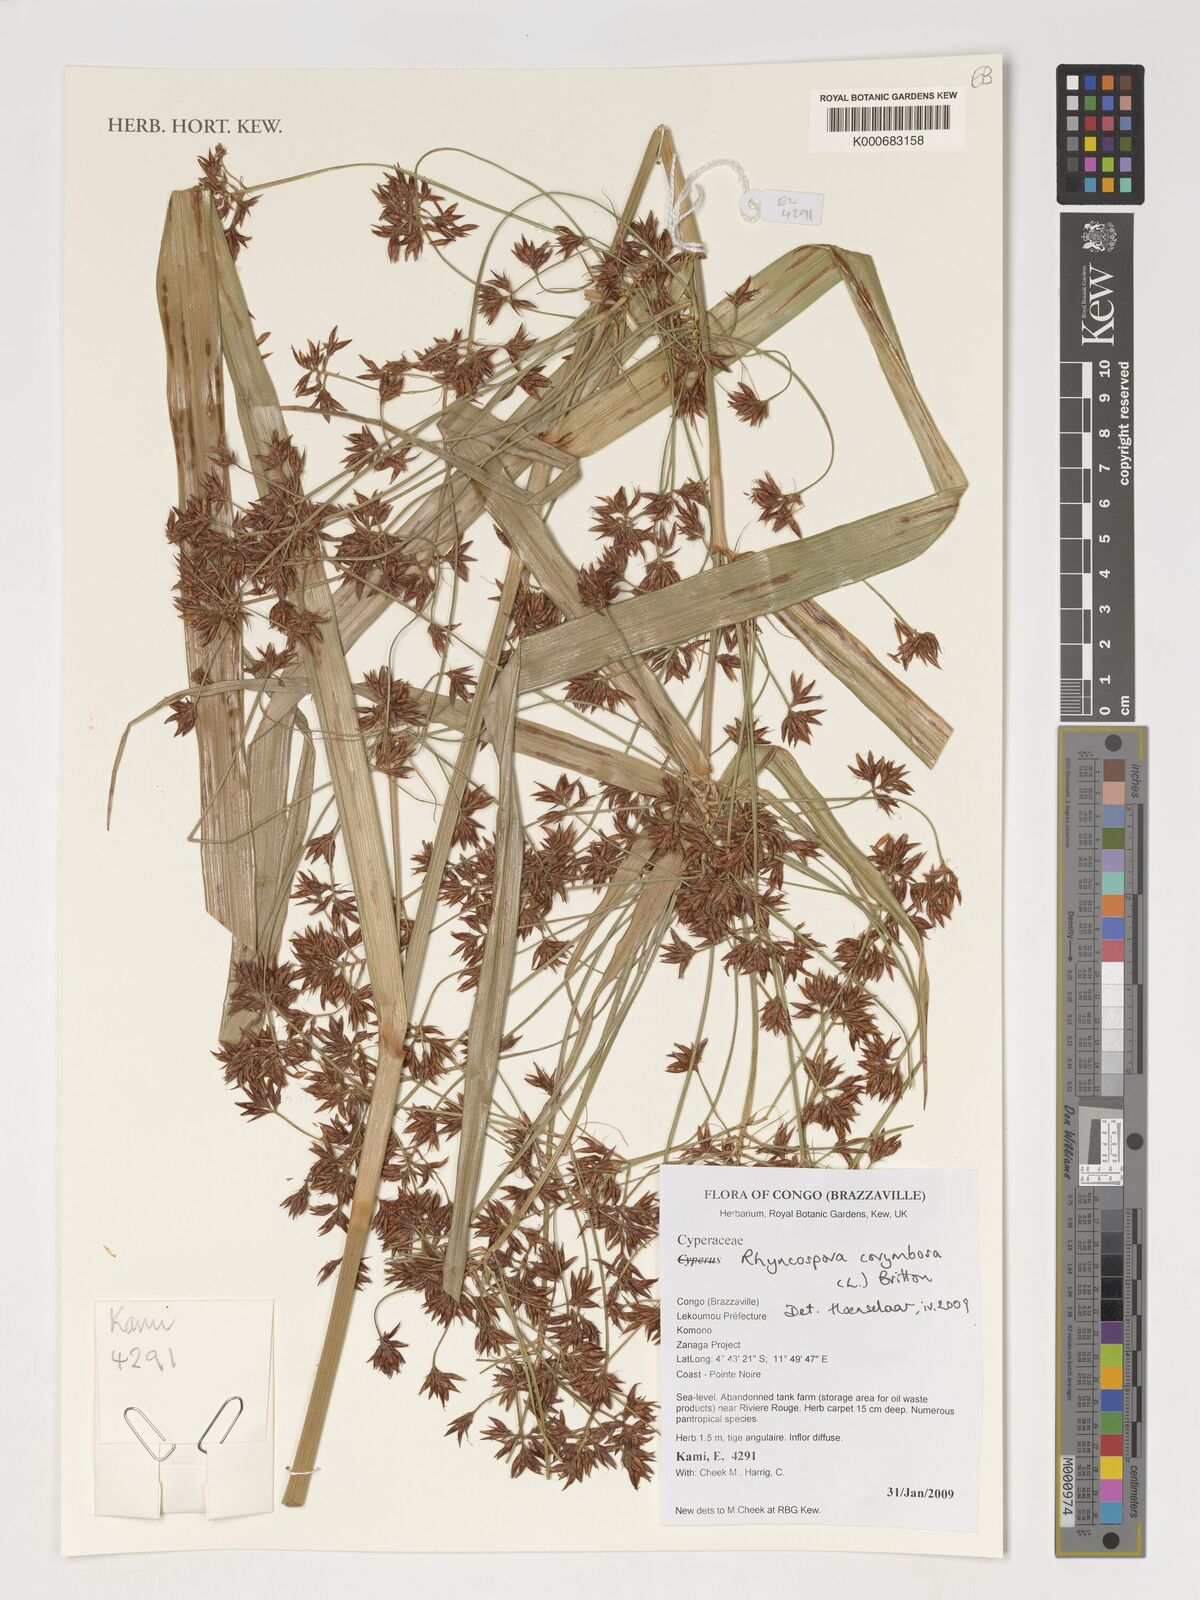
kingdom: Plantae
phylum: Tracheophyta
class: Liliopsida
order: Poales
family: Cyperaceae
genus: Rhynchospora
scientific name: Rhynchospora corymbosa
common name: Golden beak sedge
